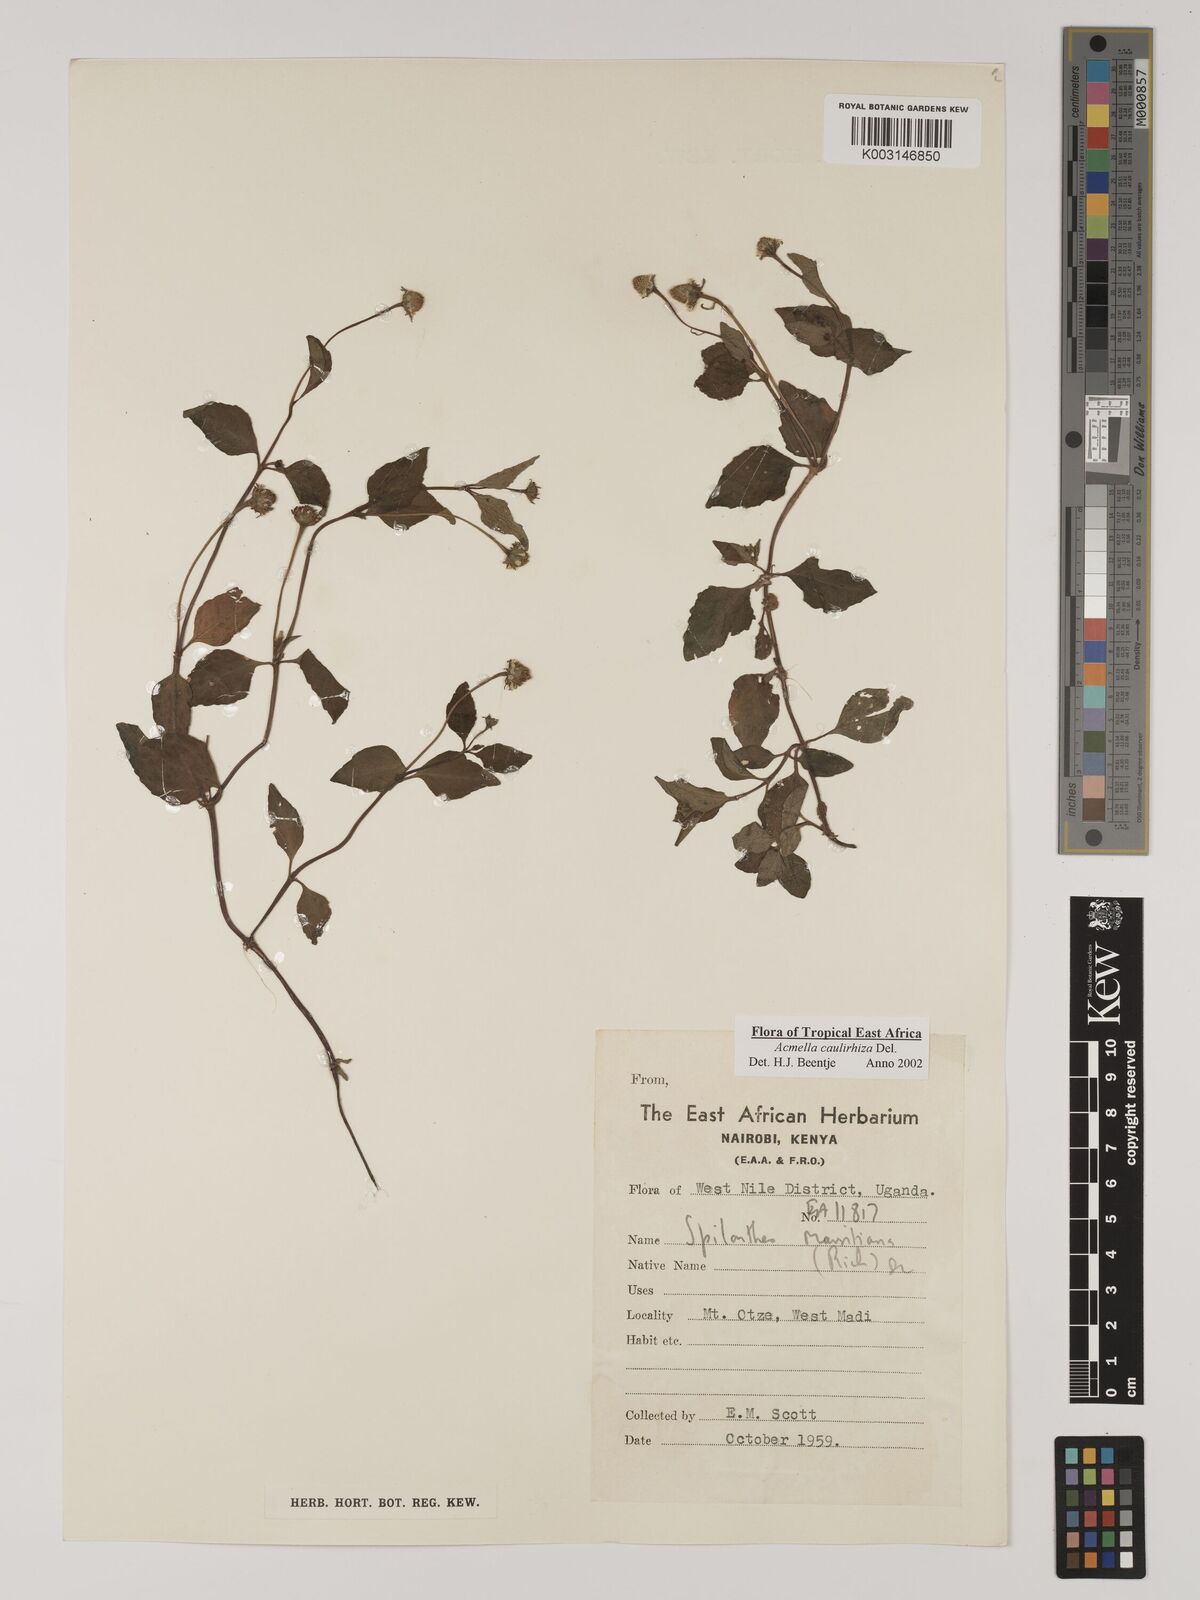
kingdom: Plantae
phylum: Tracheophyta
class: Magnoliopsida
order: Asterales
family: Asteraceae
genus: Acmella
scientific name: Acmella caulirhiza
